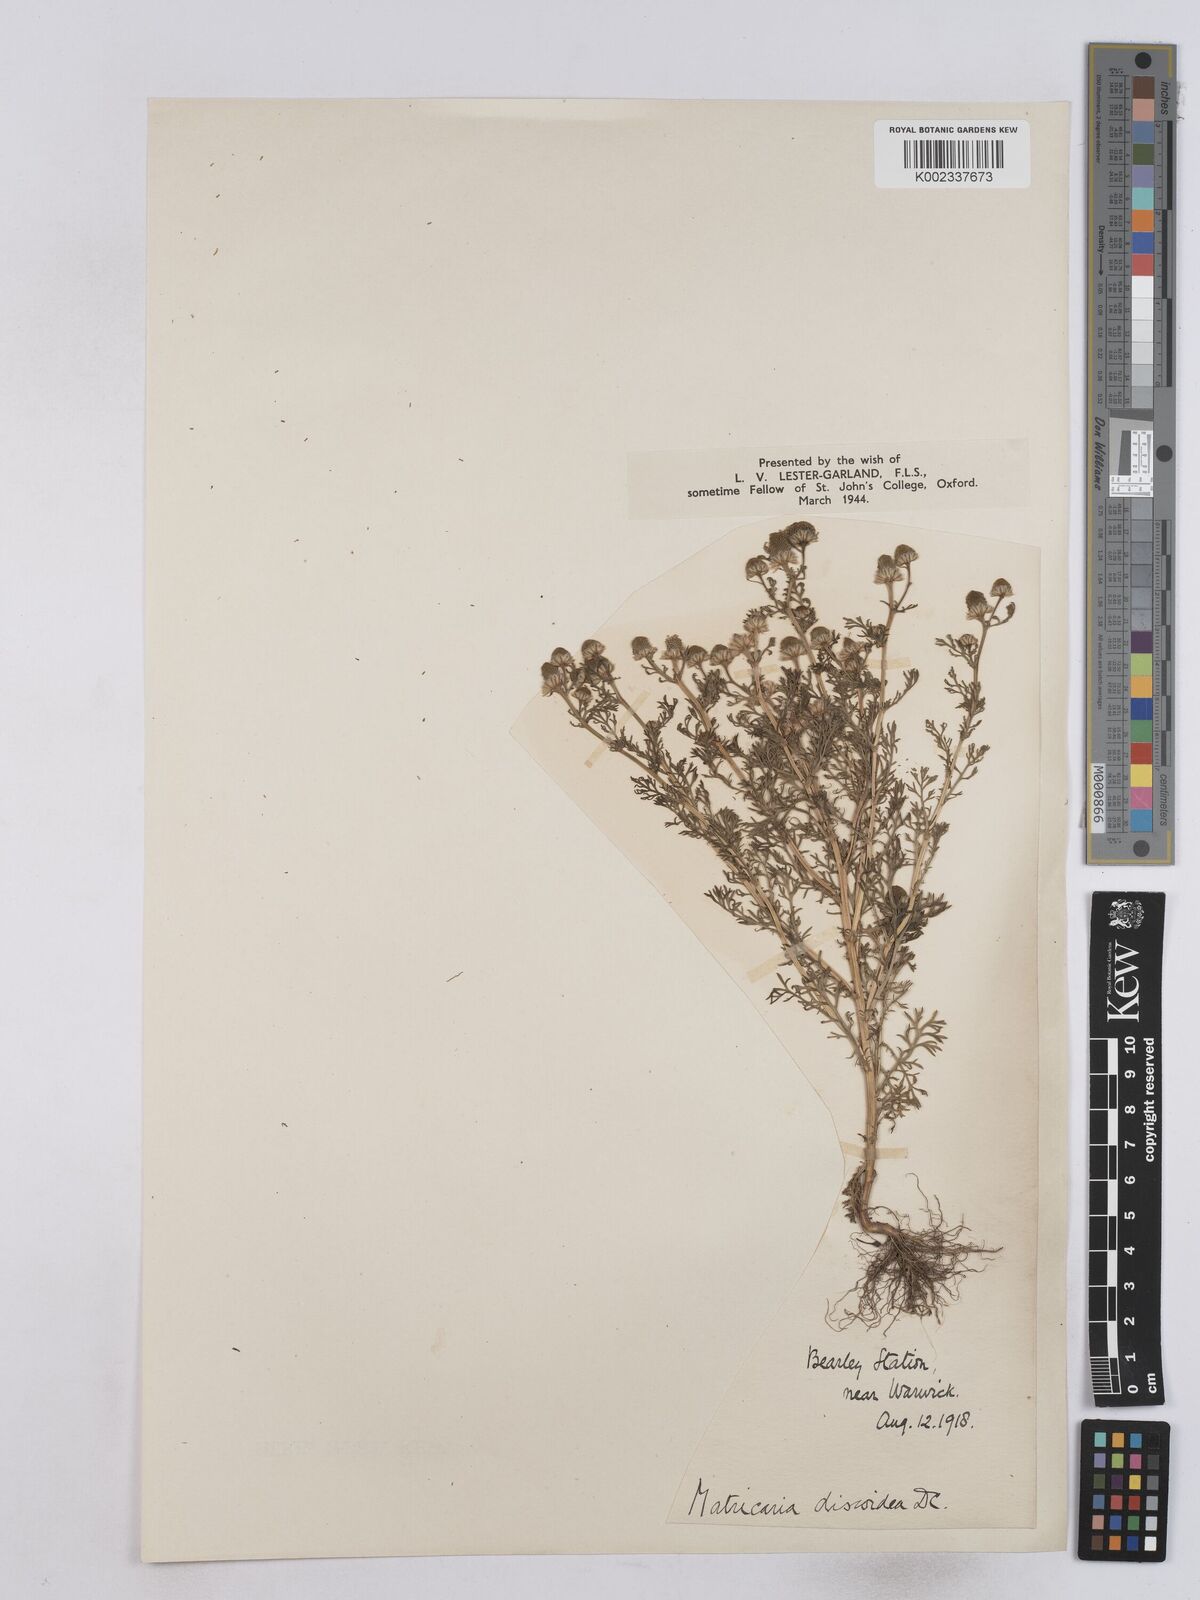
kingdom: Plantae
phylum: Tracheophyta
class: Magnoliopsida
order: Asterales
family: Asteraceae
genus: Matricaria
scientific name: Matricaria discoidea
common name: Disc mayweed
